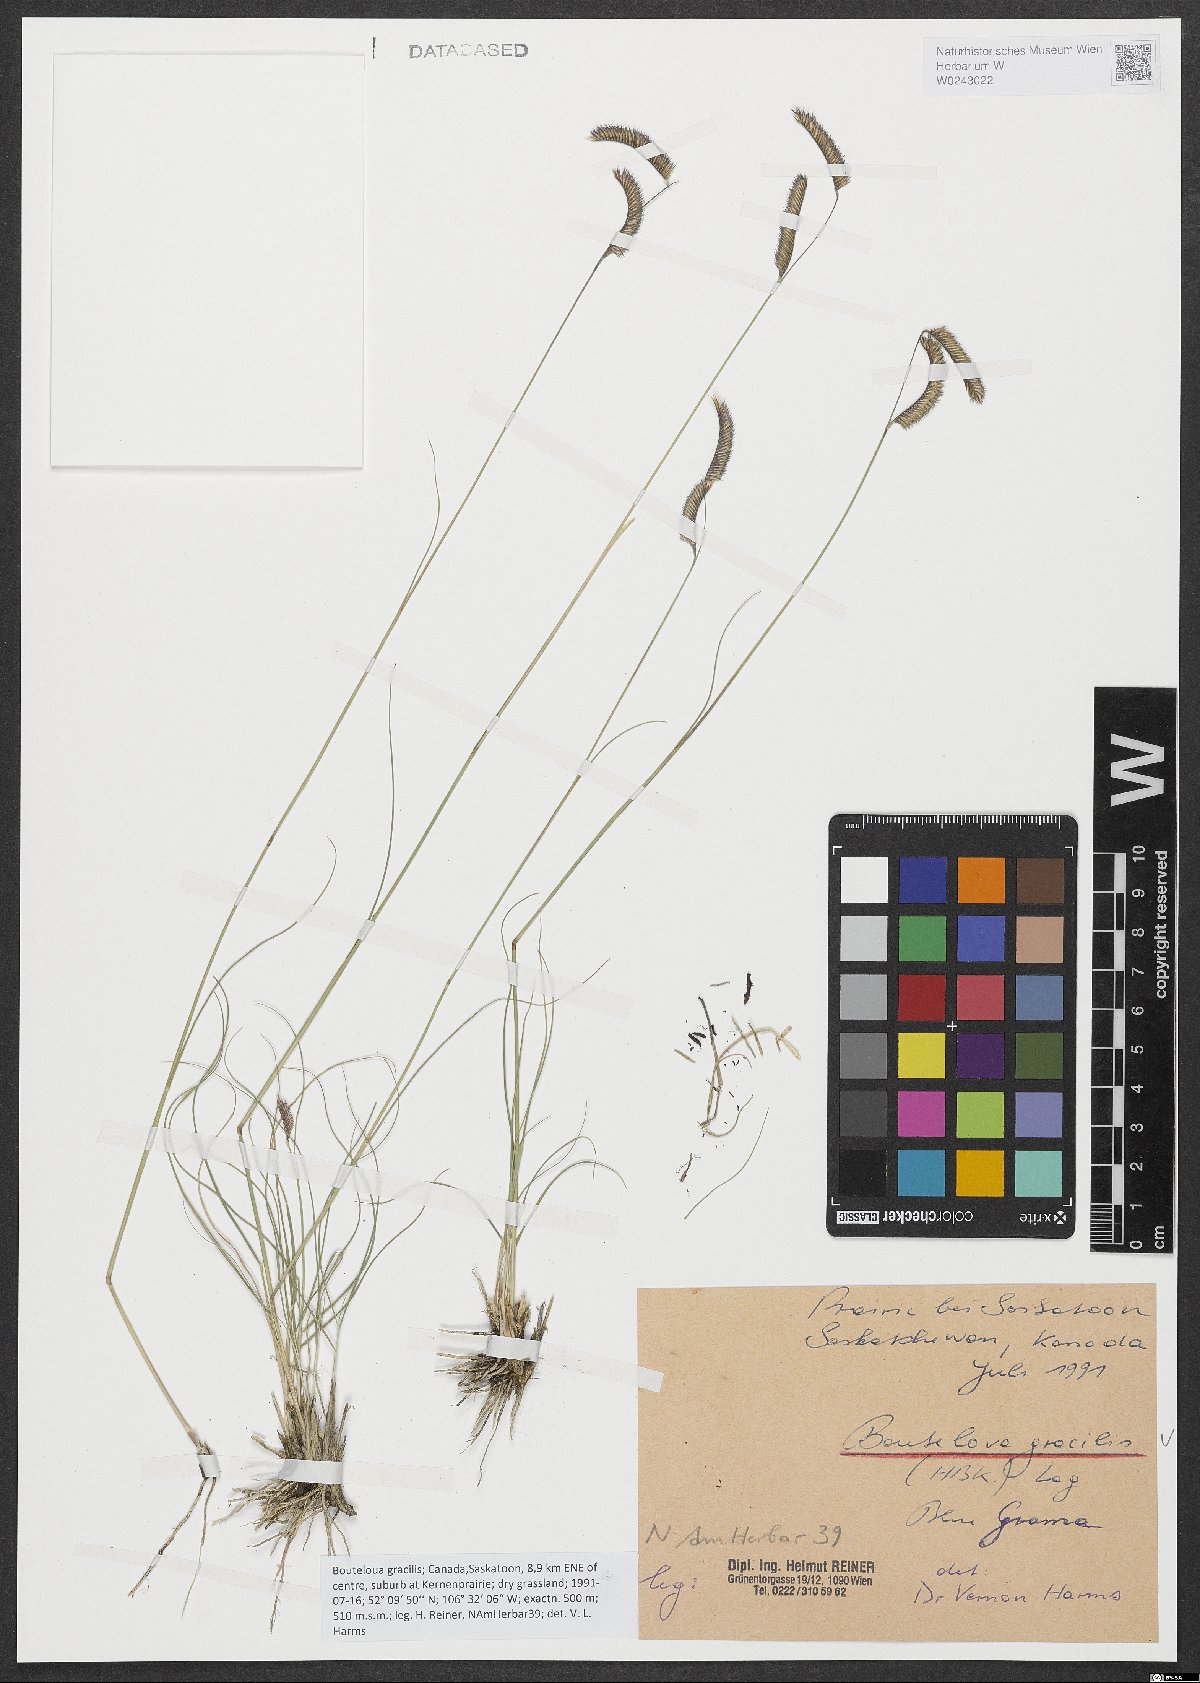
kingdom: Plantae
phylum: Tracheophyta
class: Liliopsida
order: Poales
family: Poaceae
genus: Bouteloua
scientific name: Bouteloua gracilis
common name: Blue grama
